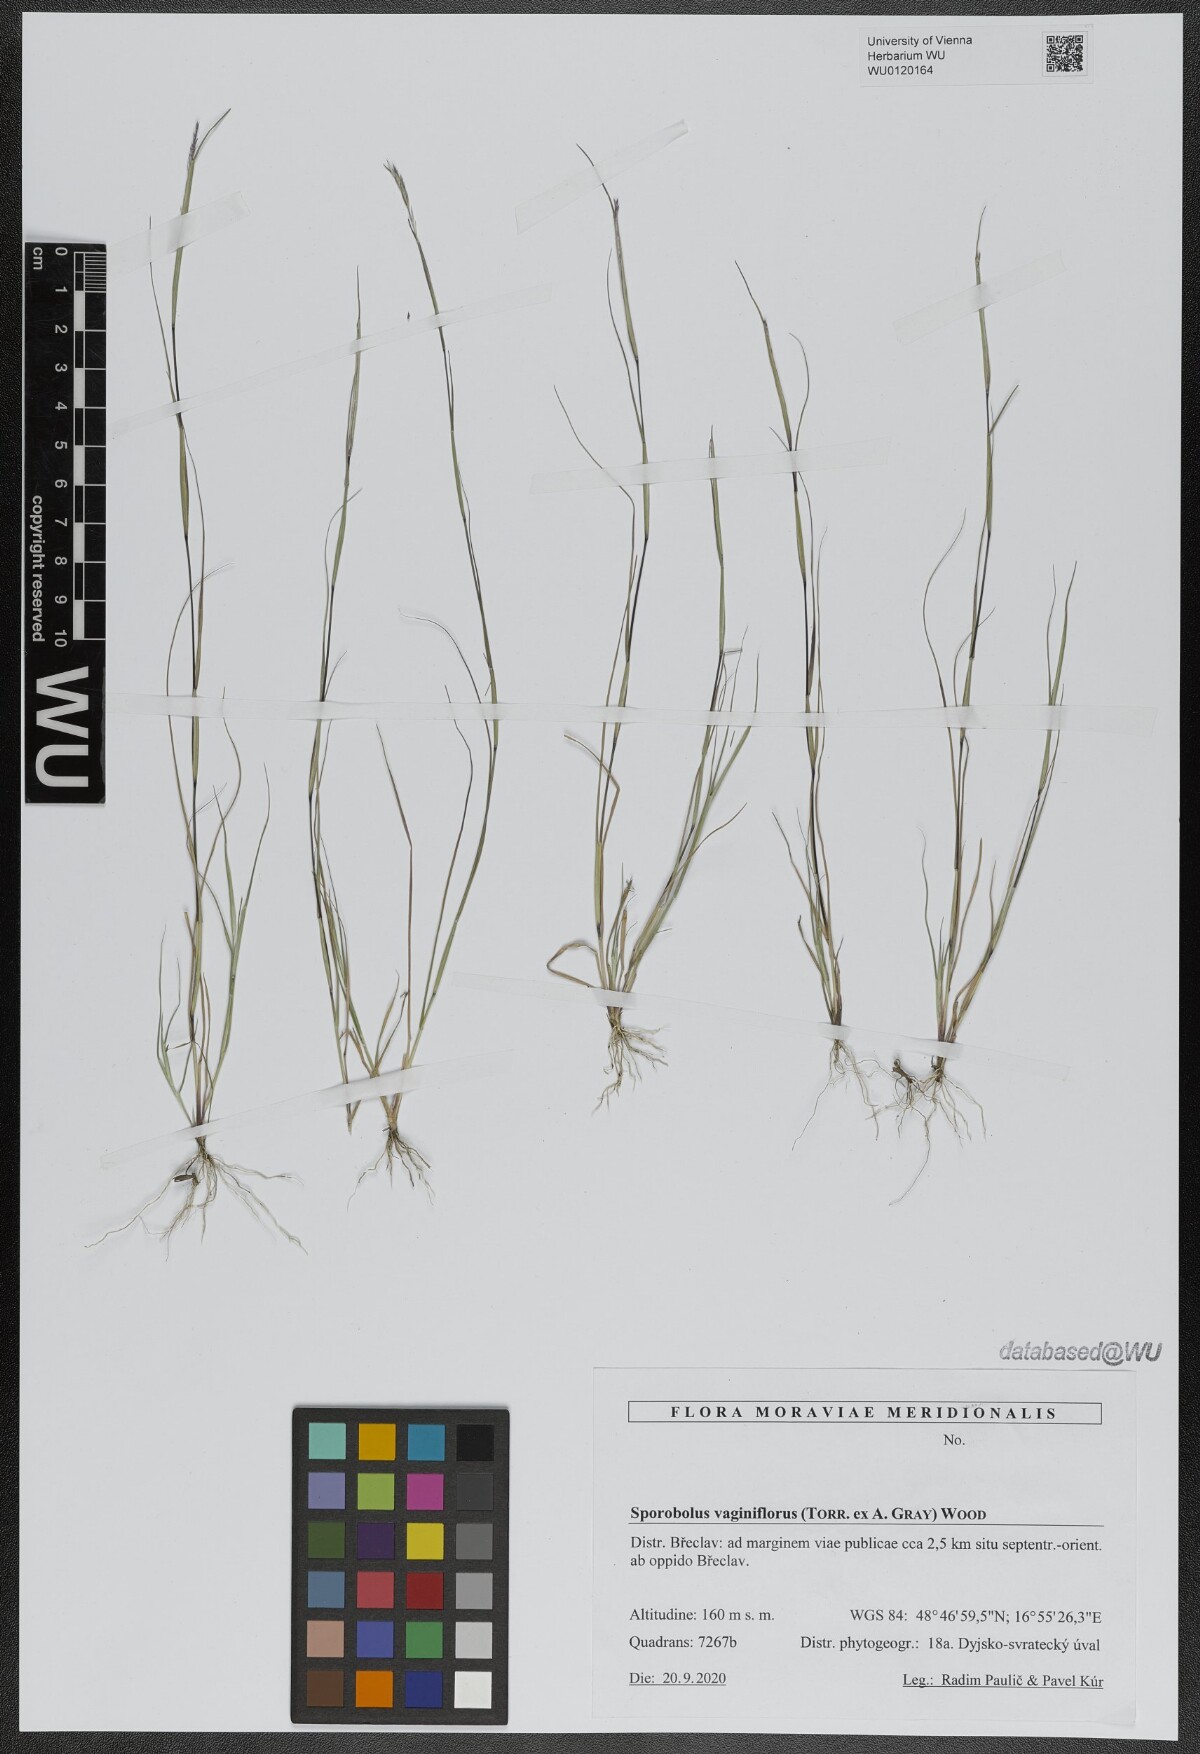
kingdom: Plantae
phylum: Tracheophyta
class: Liliopsida
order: Poales
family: Poaceae
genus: Sporobolus
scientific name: Sporobolus vaginiflorus
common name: Poverty dropseed
